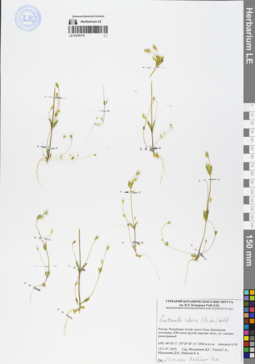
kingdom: Plantae
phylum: Tracheophyta
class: Magnoliopsida
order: Gentianales
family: Gentianaceae
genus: Gentianella
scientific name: Gentianella sibirica
